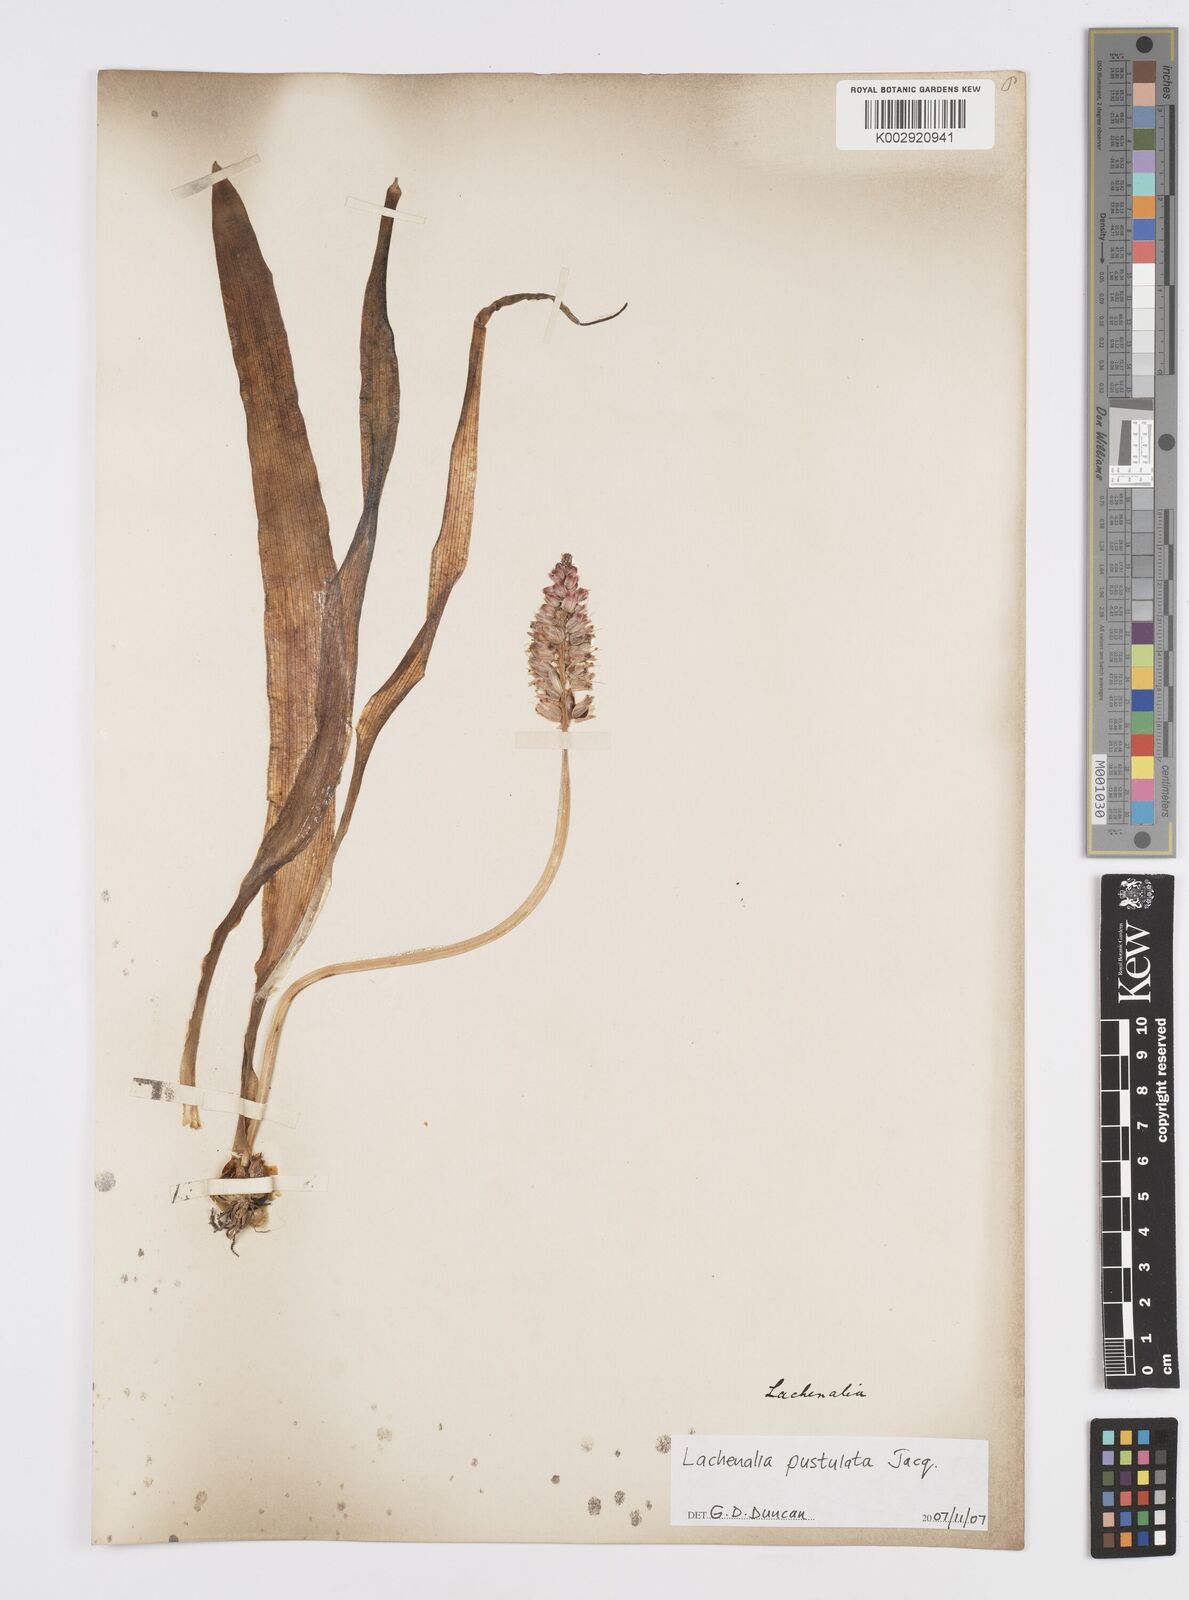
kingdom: Plantae
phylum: Tracheophyta
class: Liliopsida
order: Asparagales
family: Asparagaceae
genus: Lachenalia
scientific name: Lachenalia pallida
